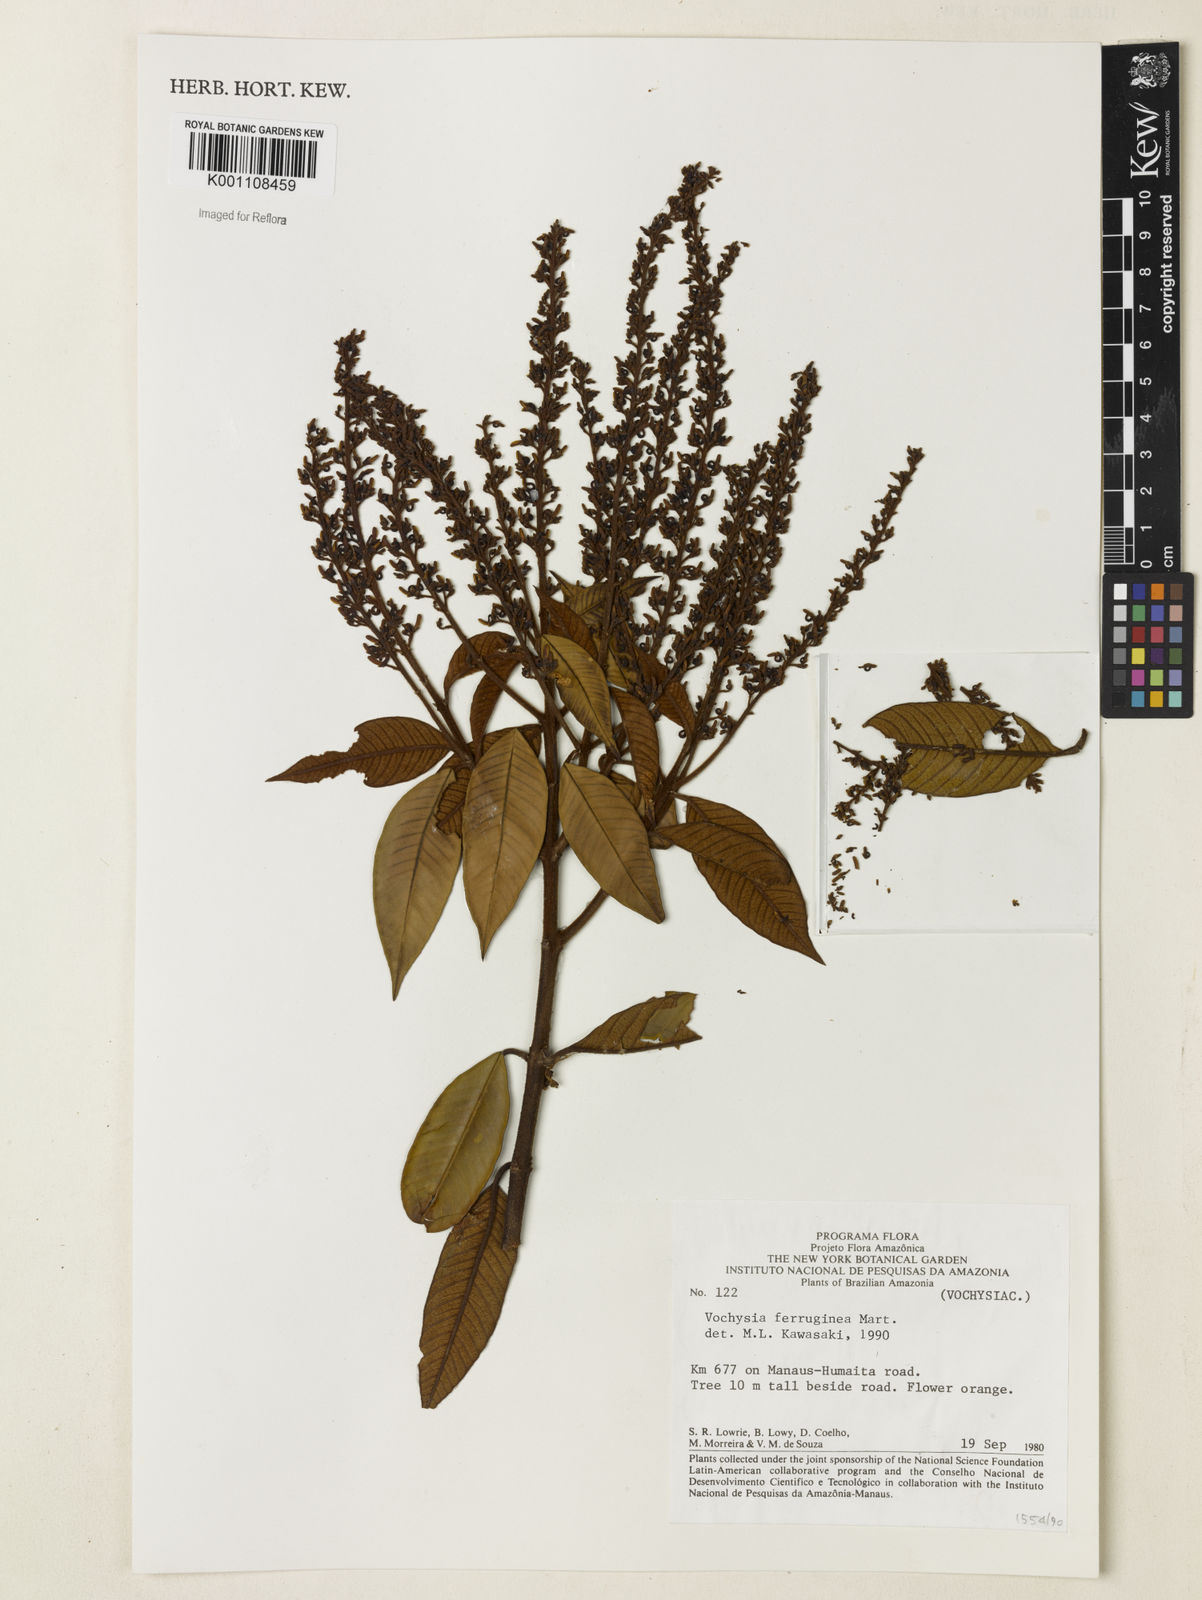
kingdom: Plantae
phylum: Tracheophyta
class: Magnoliopsida
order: Myrtales
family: Vochysiaceae
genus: Vochysia
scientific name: Vochysia ferruginea
